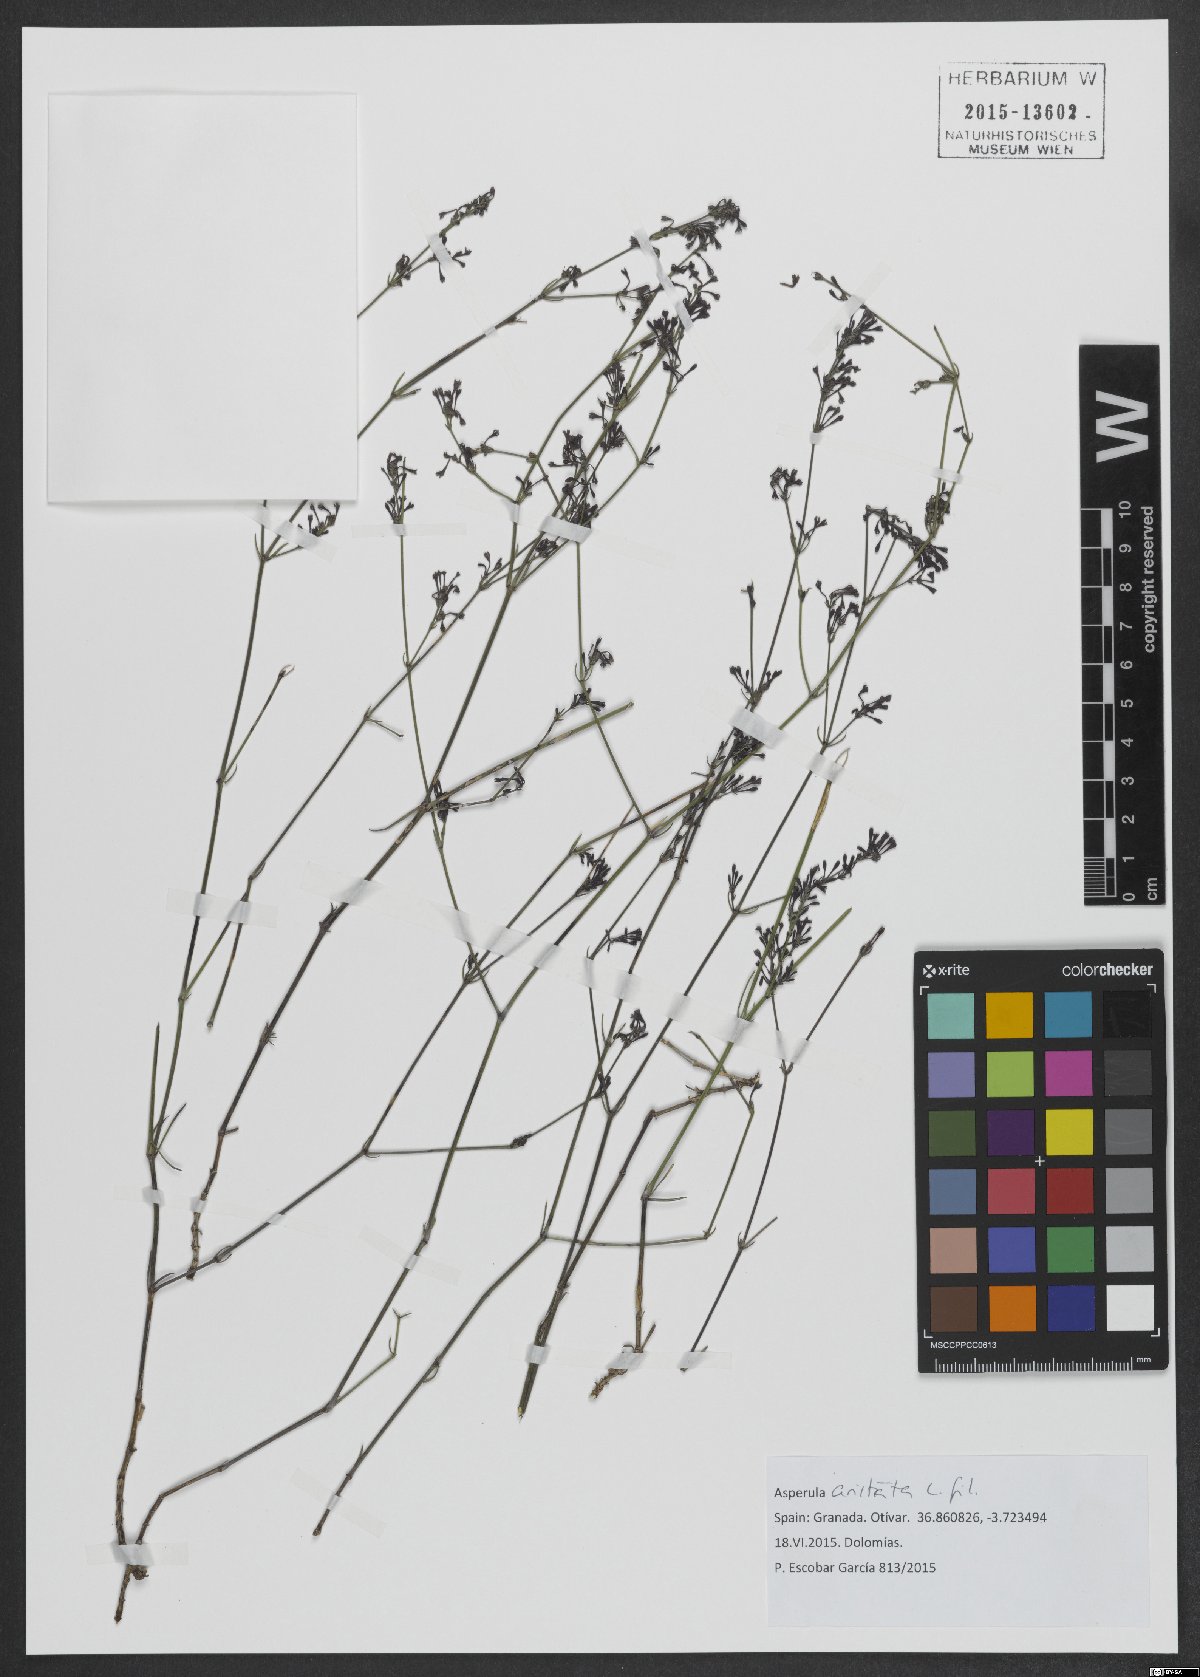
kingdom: Plantae
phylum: Tracheophyta
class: Magnoliopsida
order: Gentianales
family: Rubiaceae
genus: Cynanchica
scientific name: Cynanchica aristata
